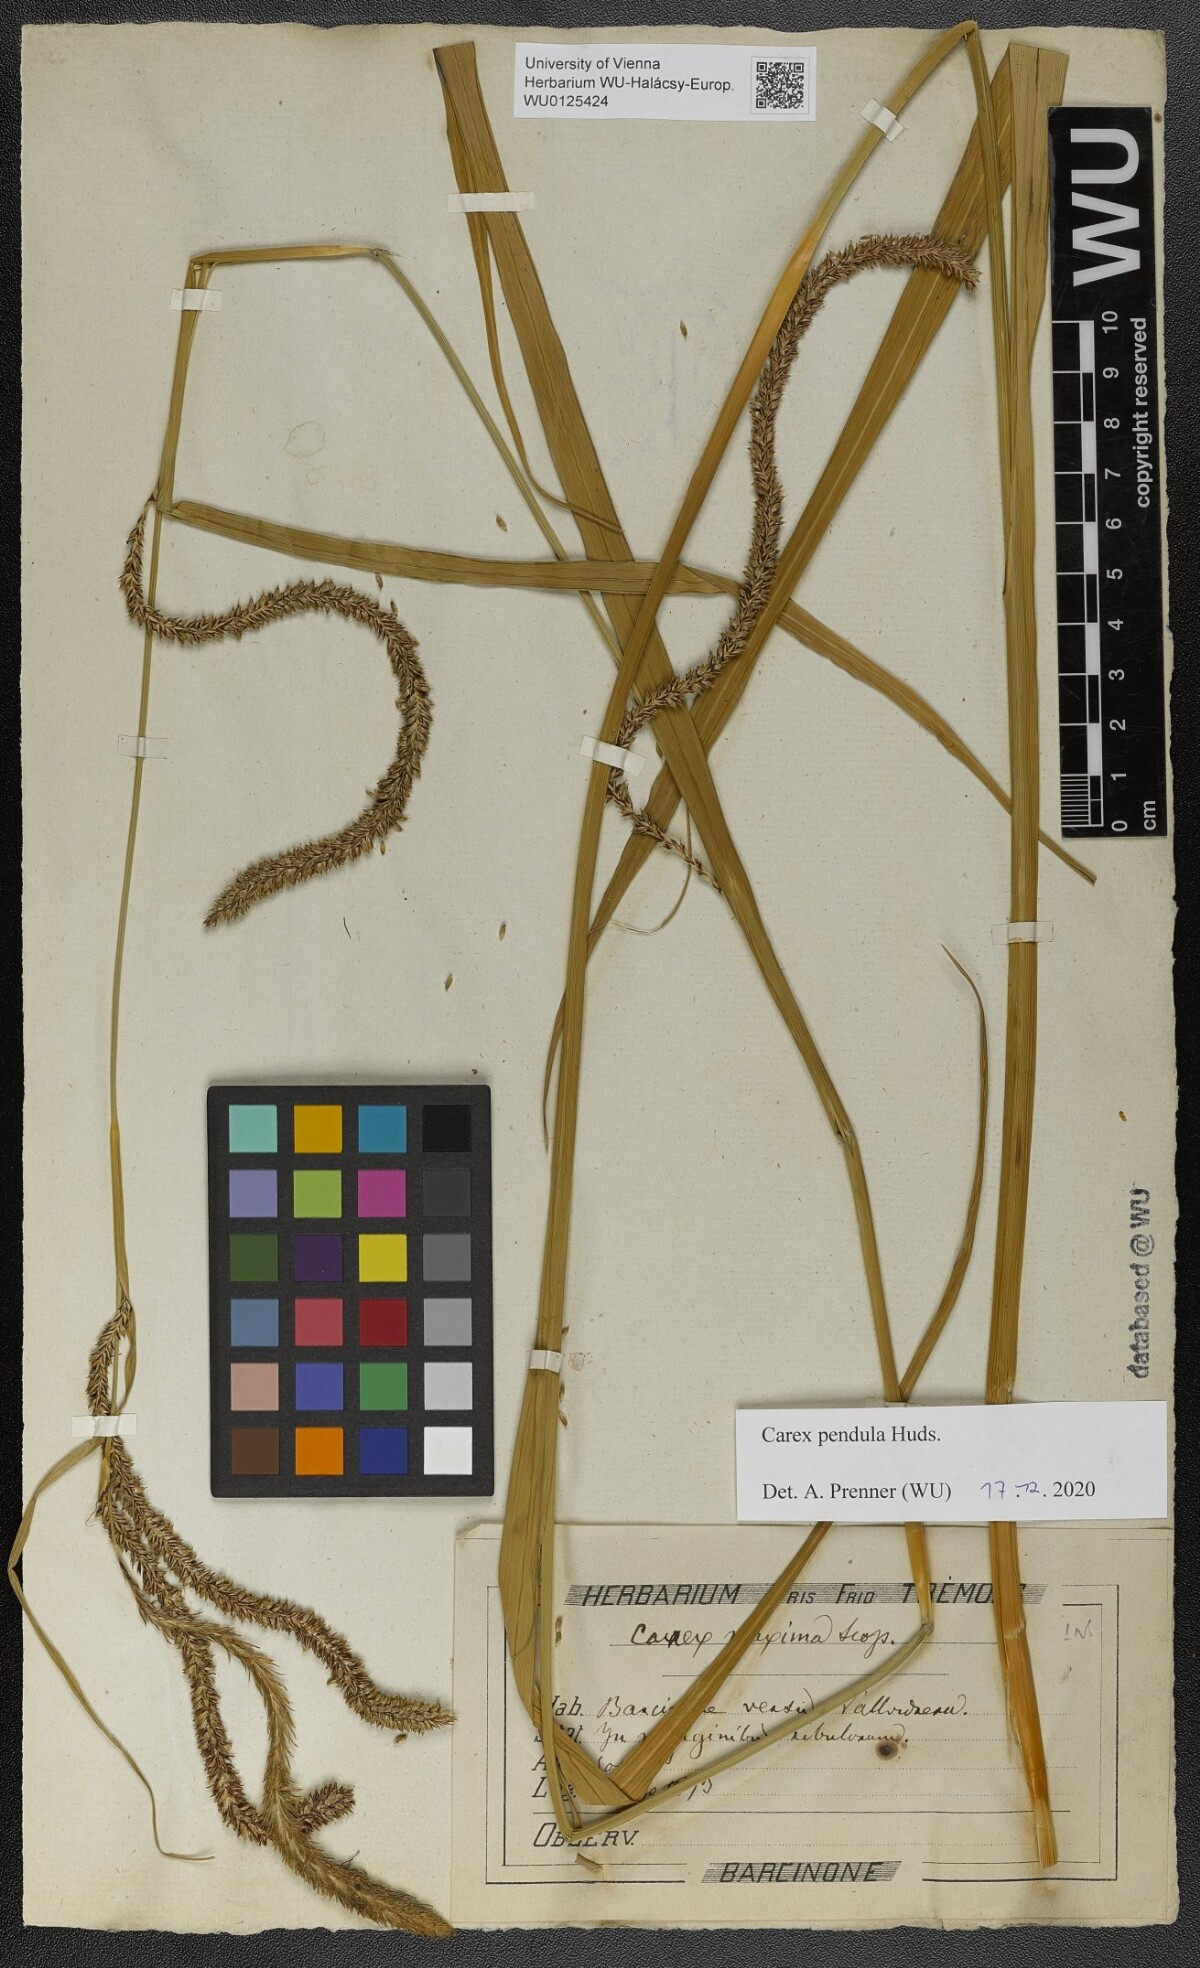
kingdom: Plantae
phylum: Tracheophyta
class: Liliopsida
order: Poales
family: Cyperaceae
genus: Carex
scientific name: Carex pendula
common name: Pendulous sedge
